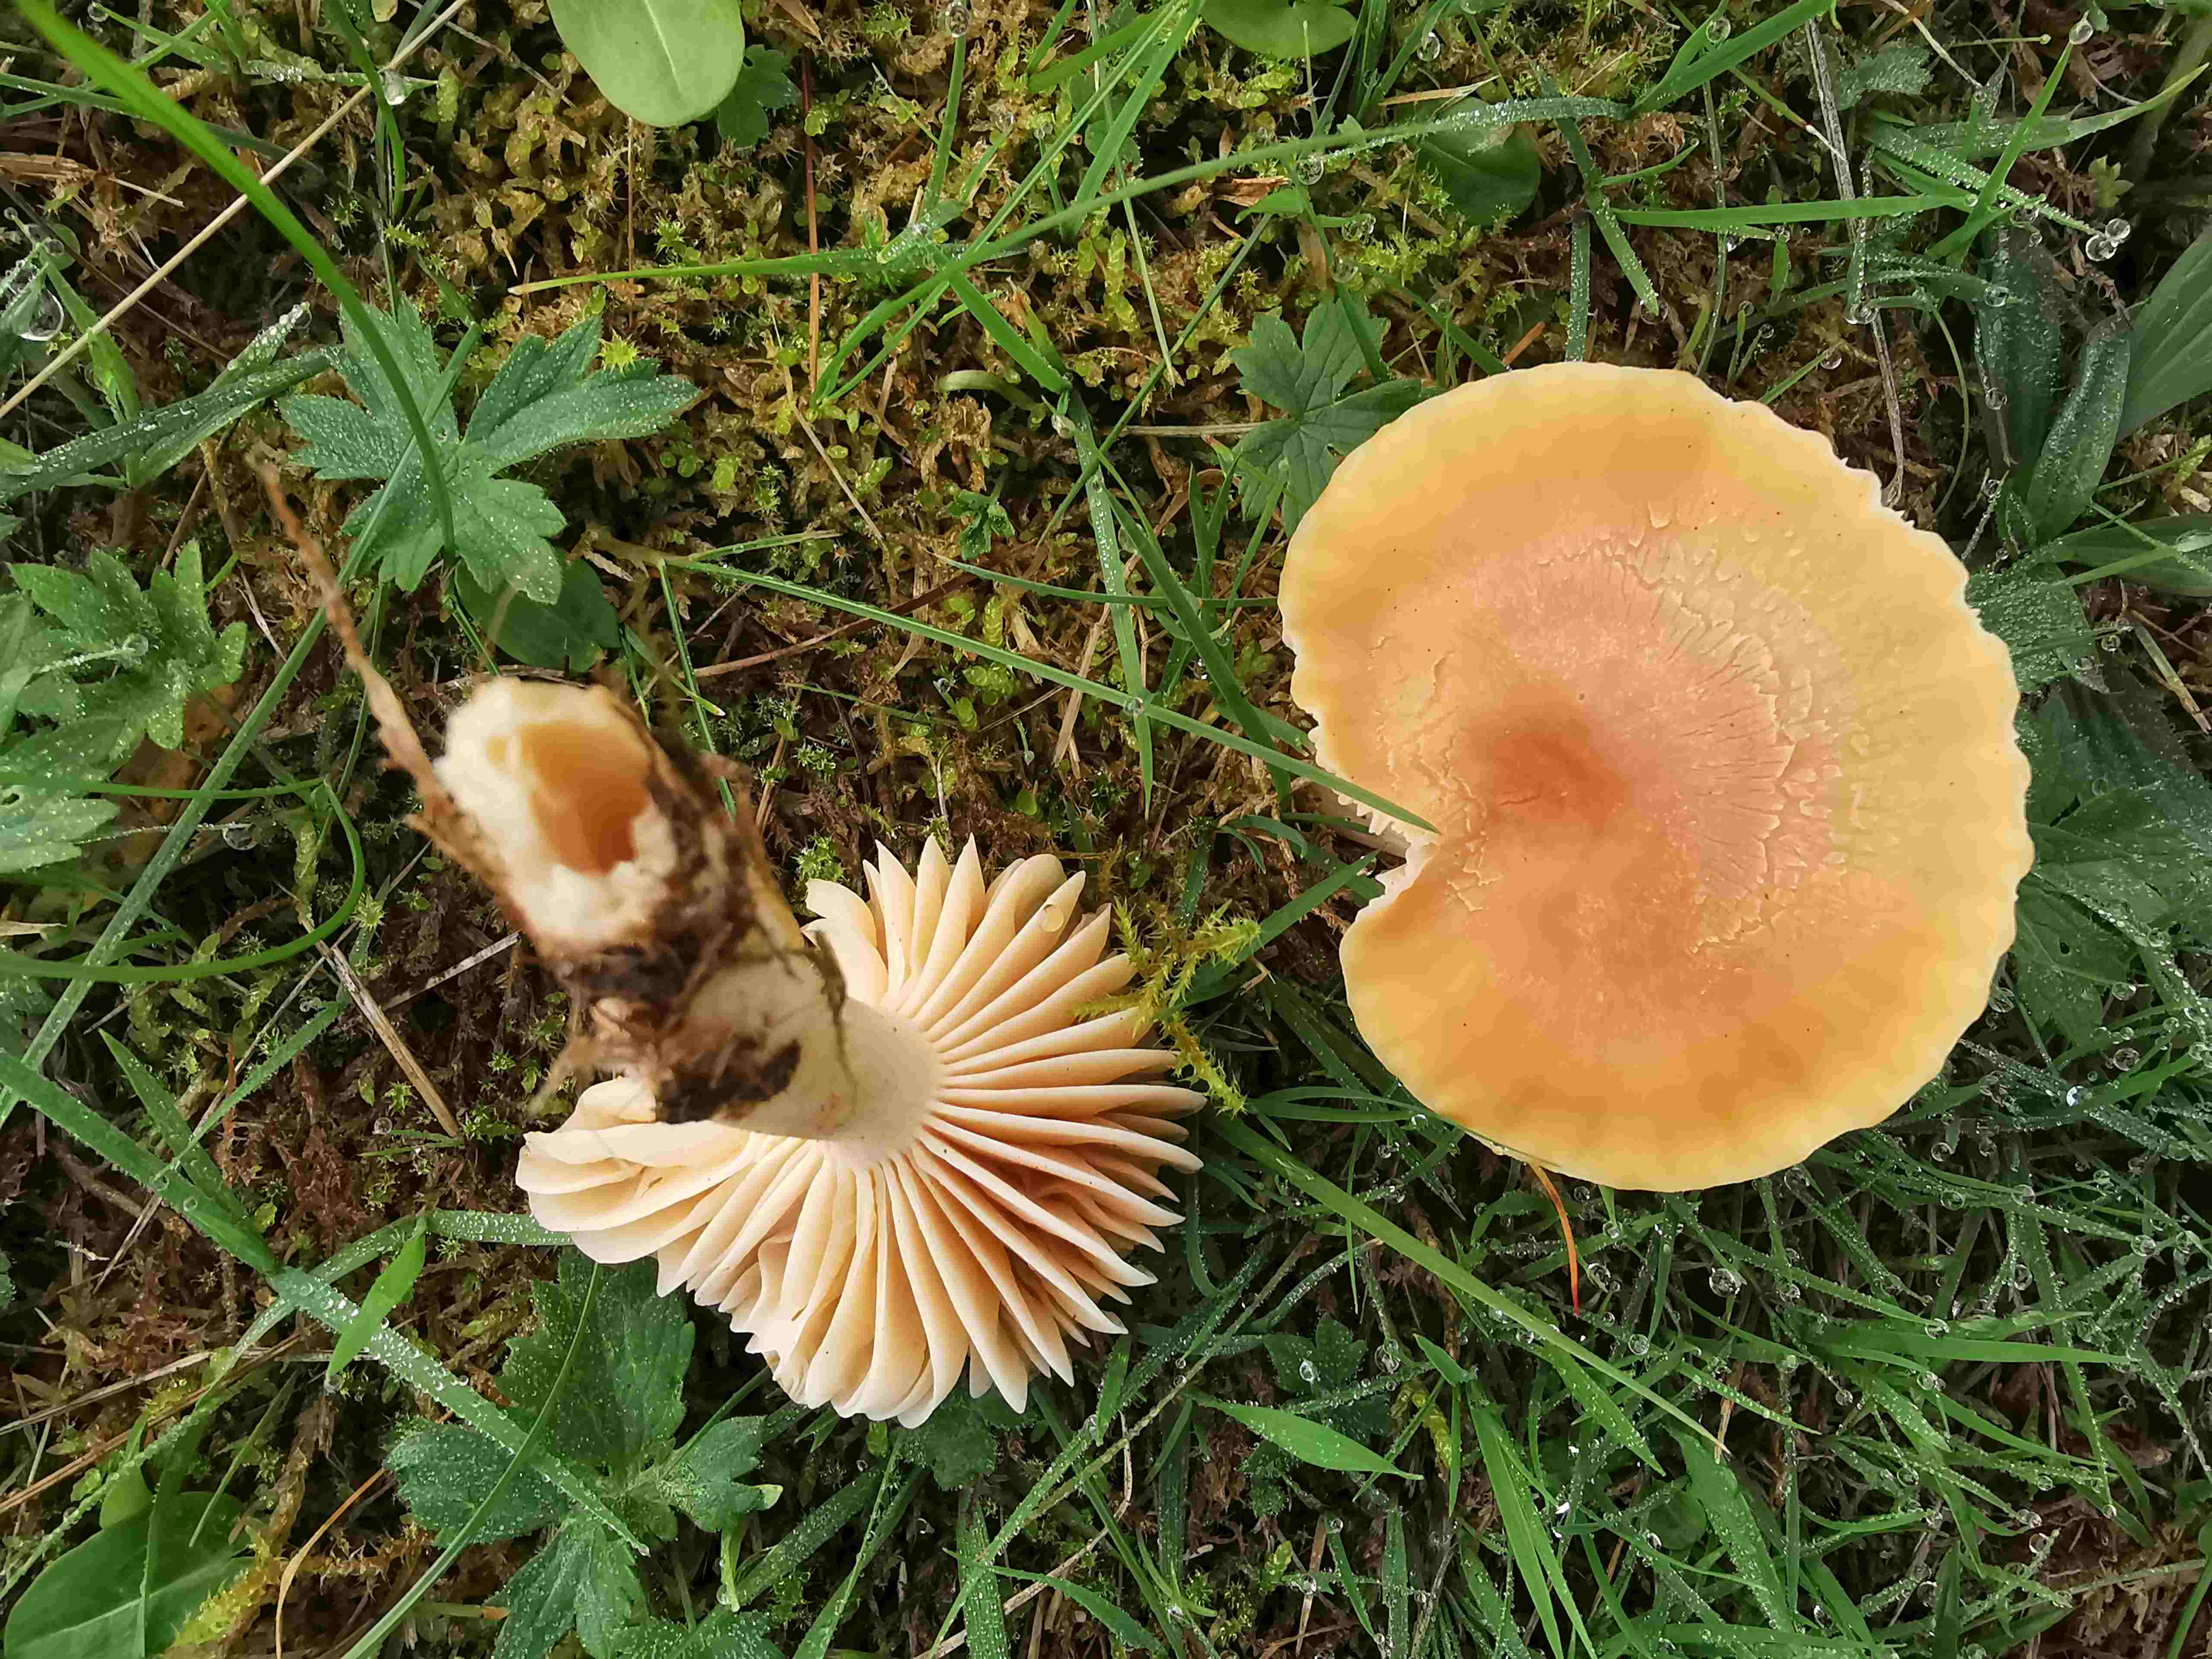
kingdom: Fungi
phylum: Basidiomycota
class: Agaricomycetes
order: Agaricales
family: Hygrophoraceae
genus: Cuphophyllus
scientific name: Cuphophyllus pratensis
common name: eng-vokshat
